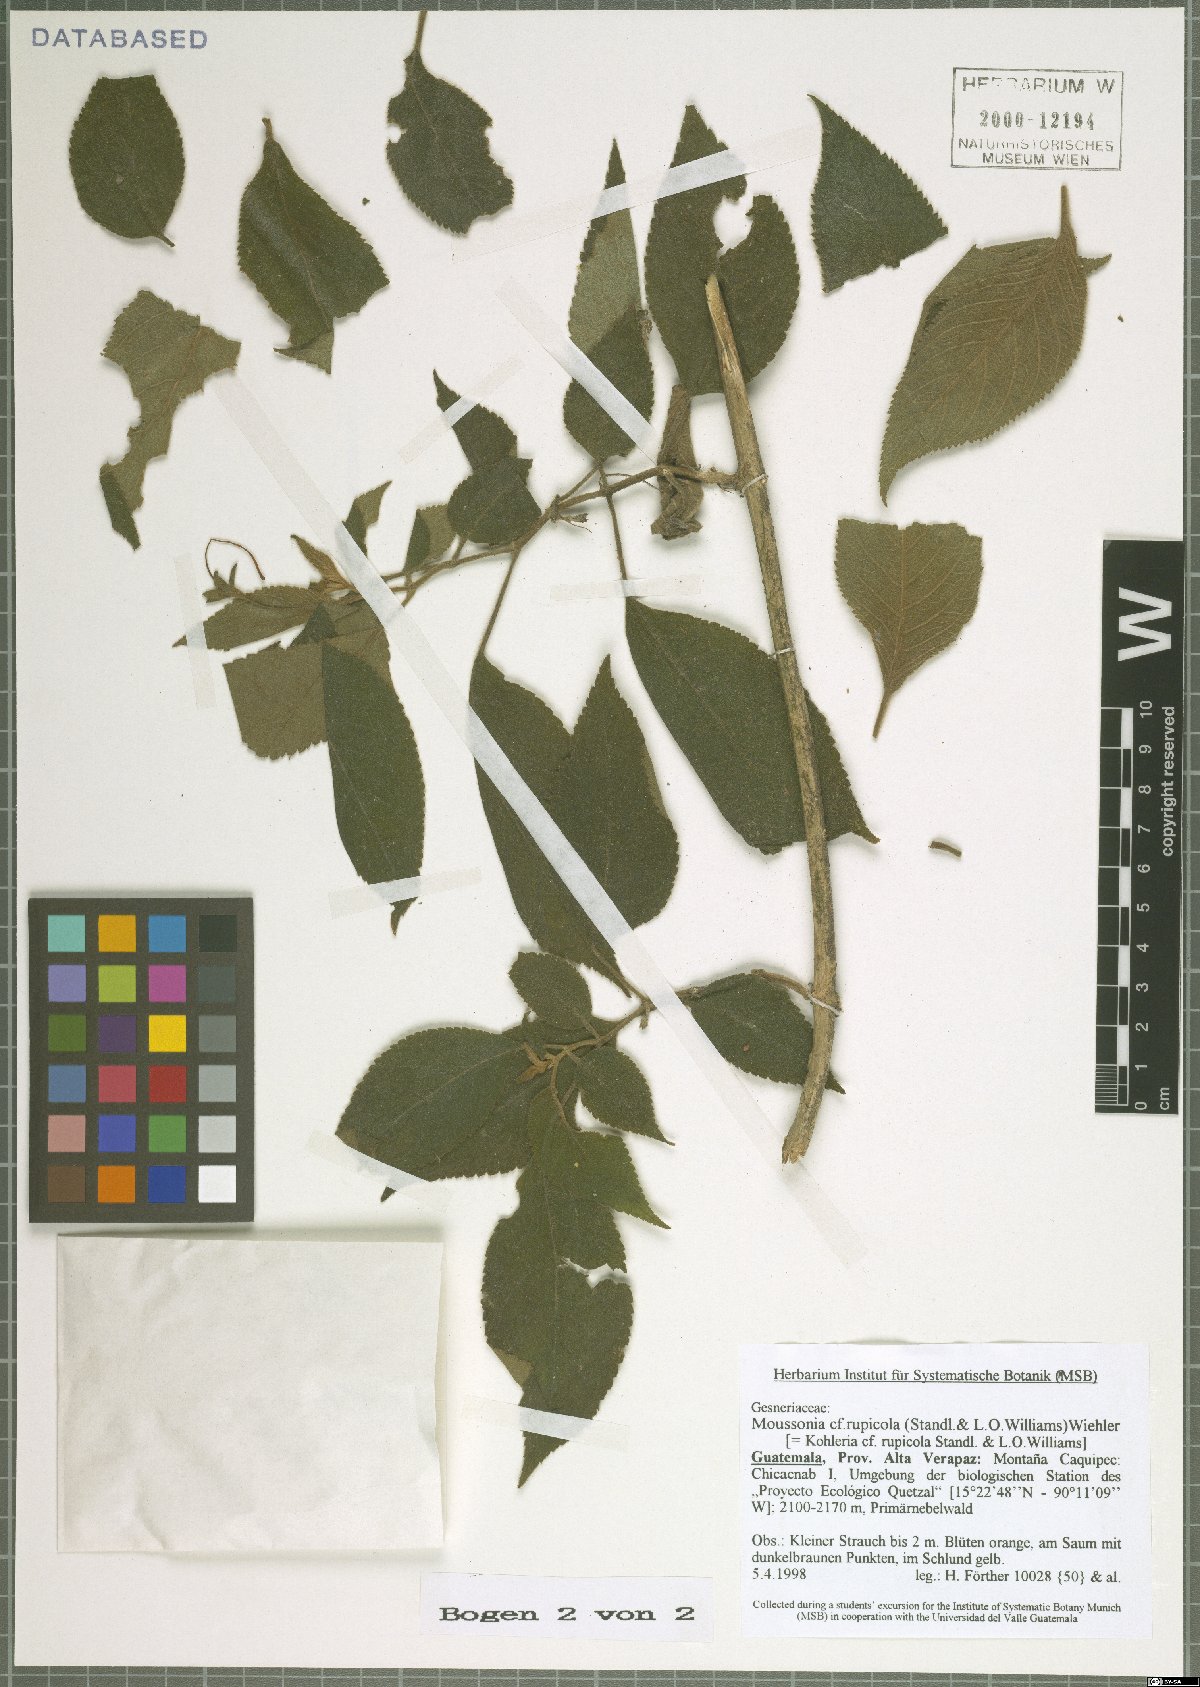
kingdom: Plantae
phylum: Tracheophyta
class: Magnoliopsida
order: Lamiales
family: Gesneriaceae
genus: Moussonia
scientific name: Moussonia rupicola
